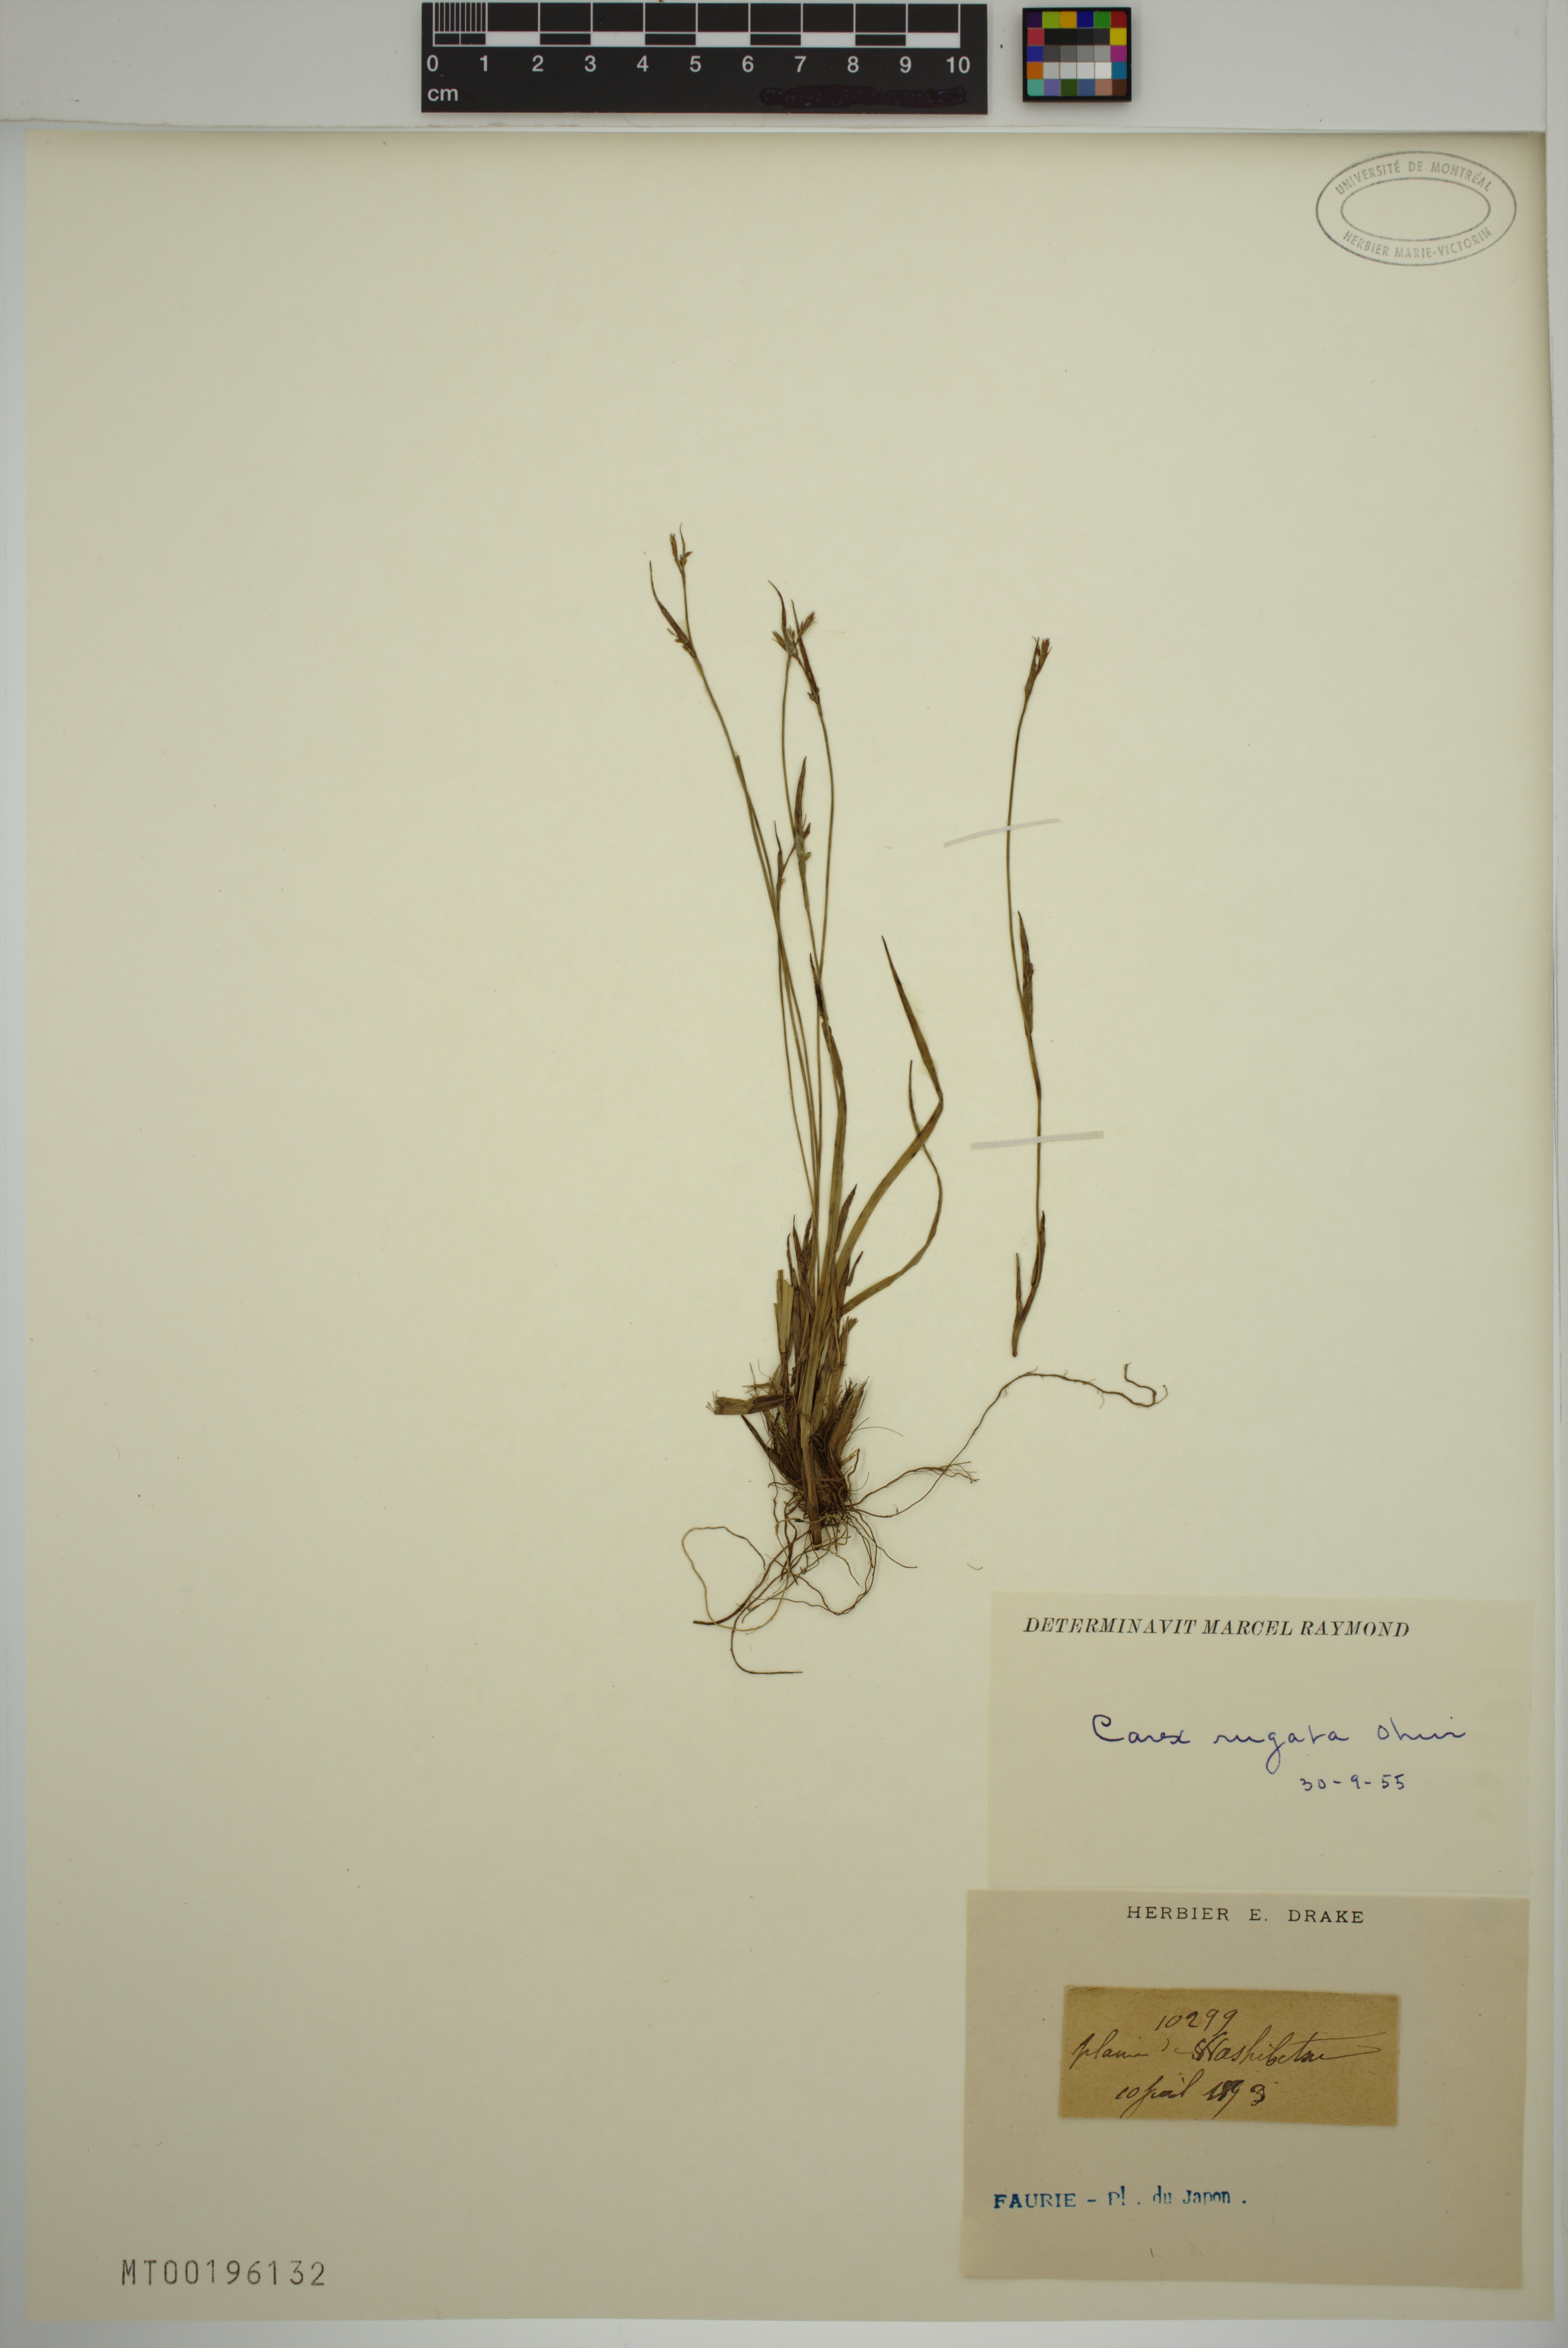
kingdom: Plantae
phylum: Tracheophyta
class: Liliopsida
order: Poales
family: Cyperaceae
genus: Carex
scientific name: Carex rugata
